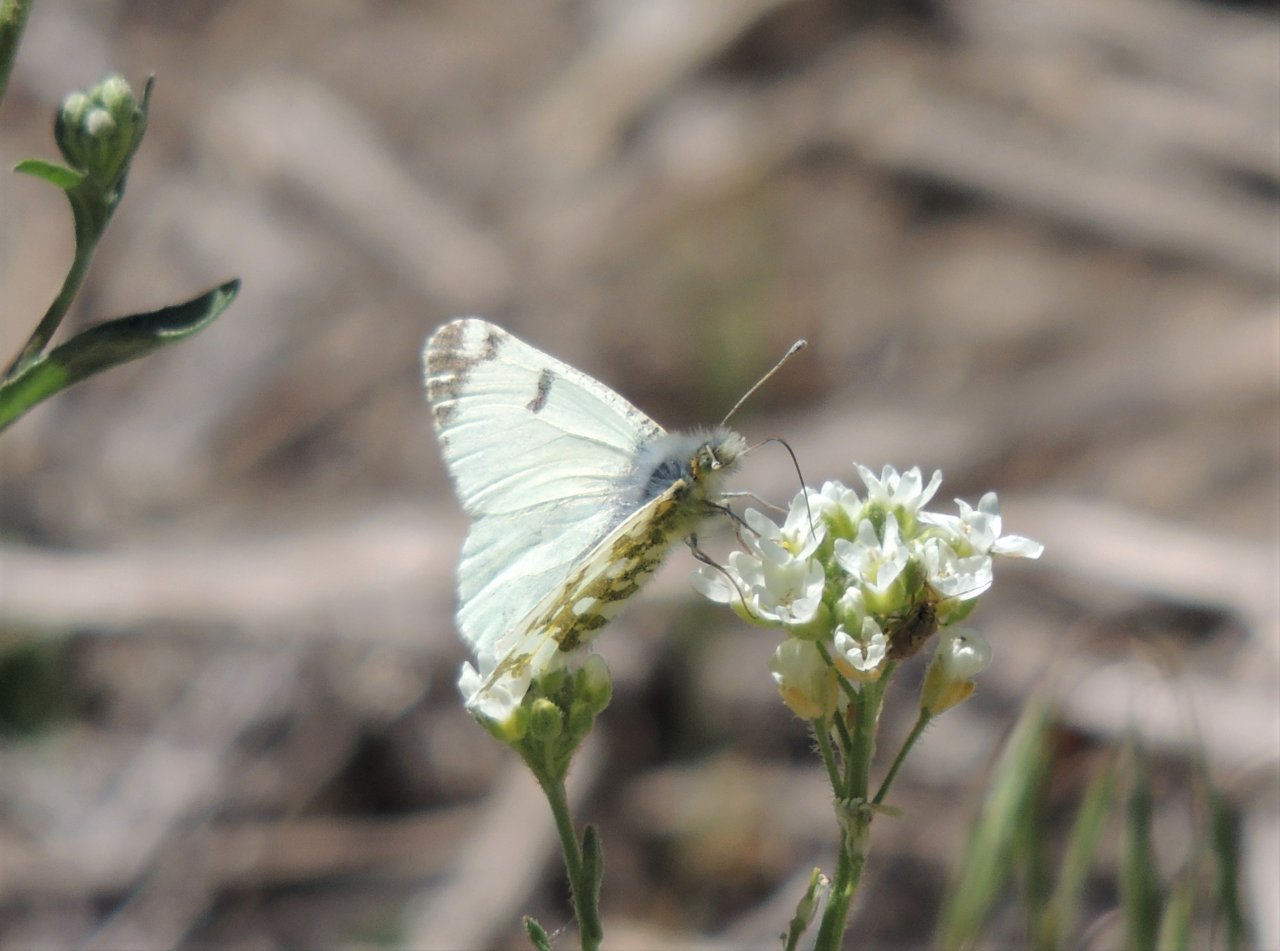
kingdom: Animalia
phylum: Arthropoda
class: Insecta
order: Lepidoptera
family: Pieridae
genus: Euchloe
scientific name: Euchloe ausonides
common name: Large Marble
